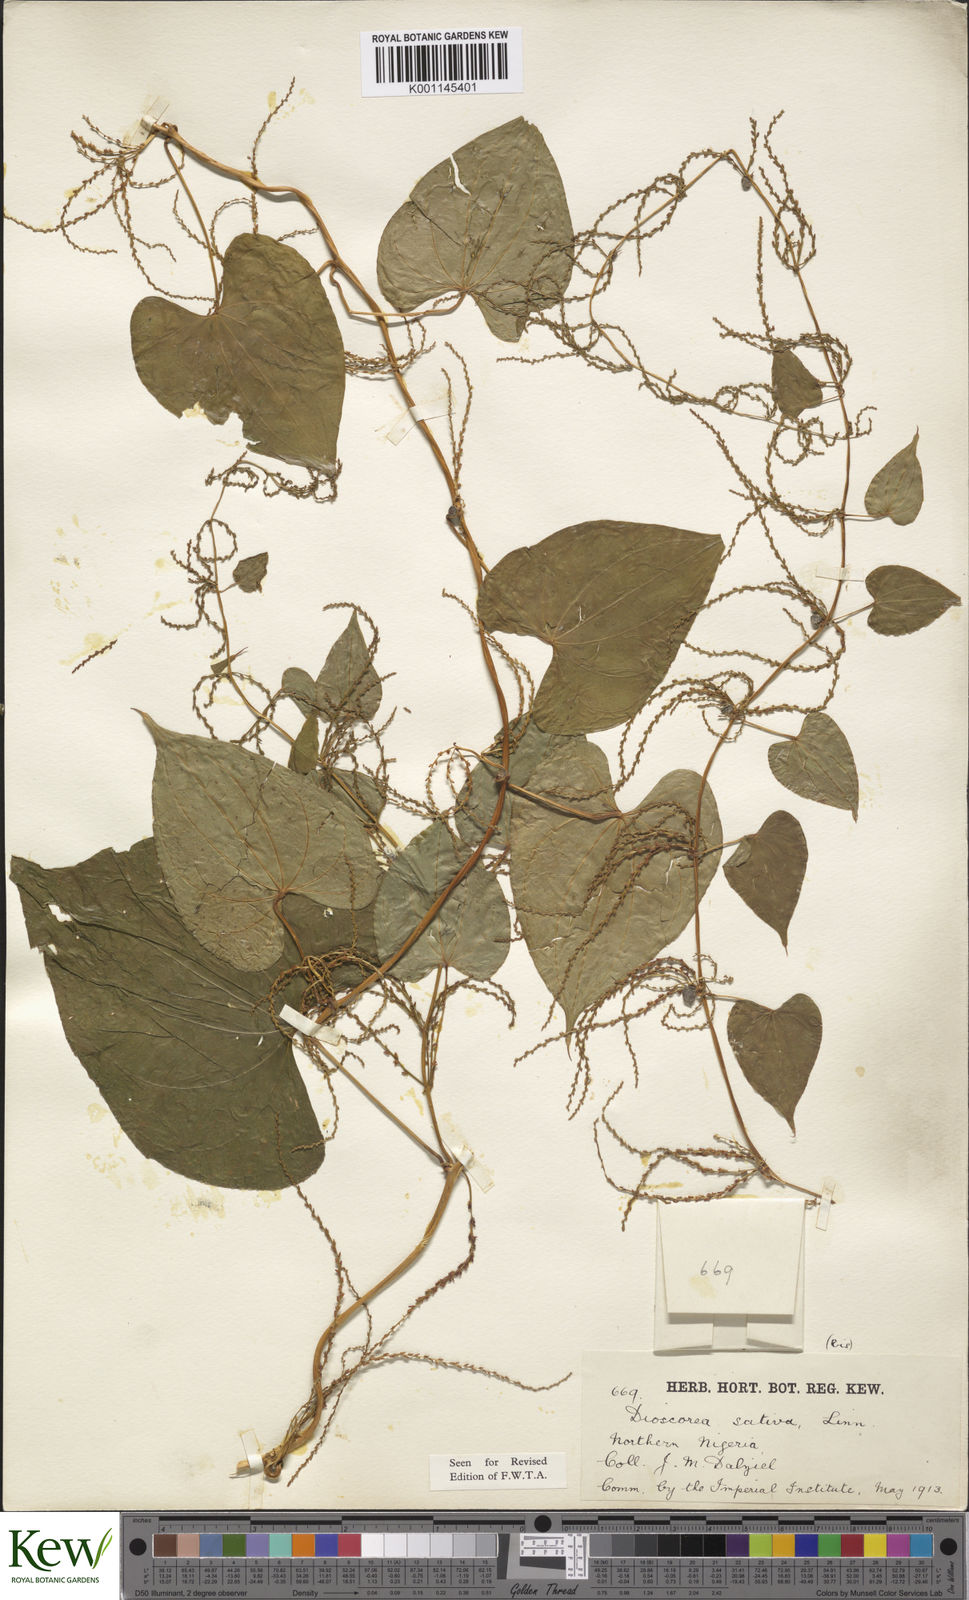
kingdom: Plantae
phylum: Tracheophyta
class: Liliopsida
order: Dioscoreales
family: Dioscoreaceae
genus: Dioscorea
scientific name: Dioscorea bulbifera
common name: Air yam
